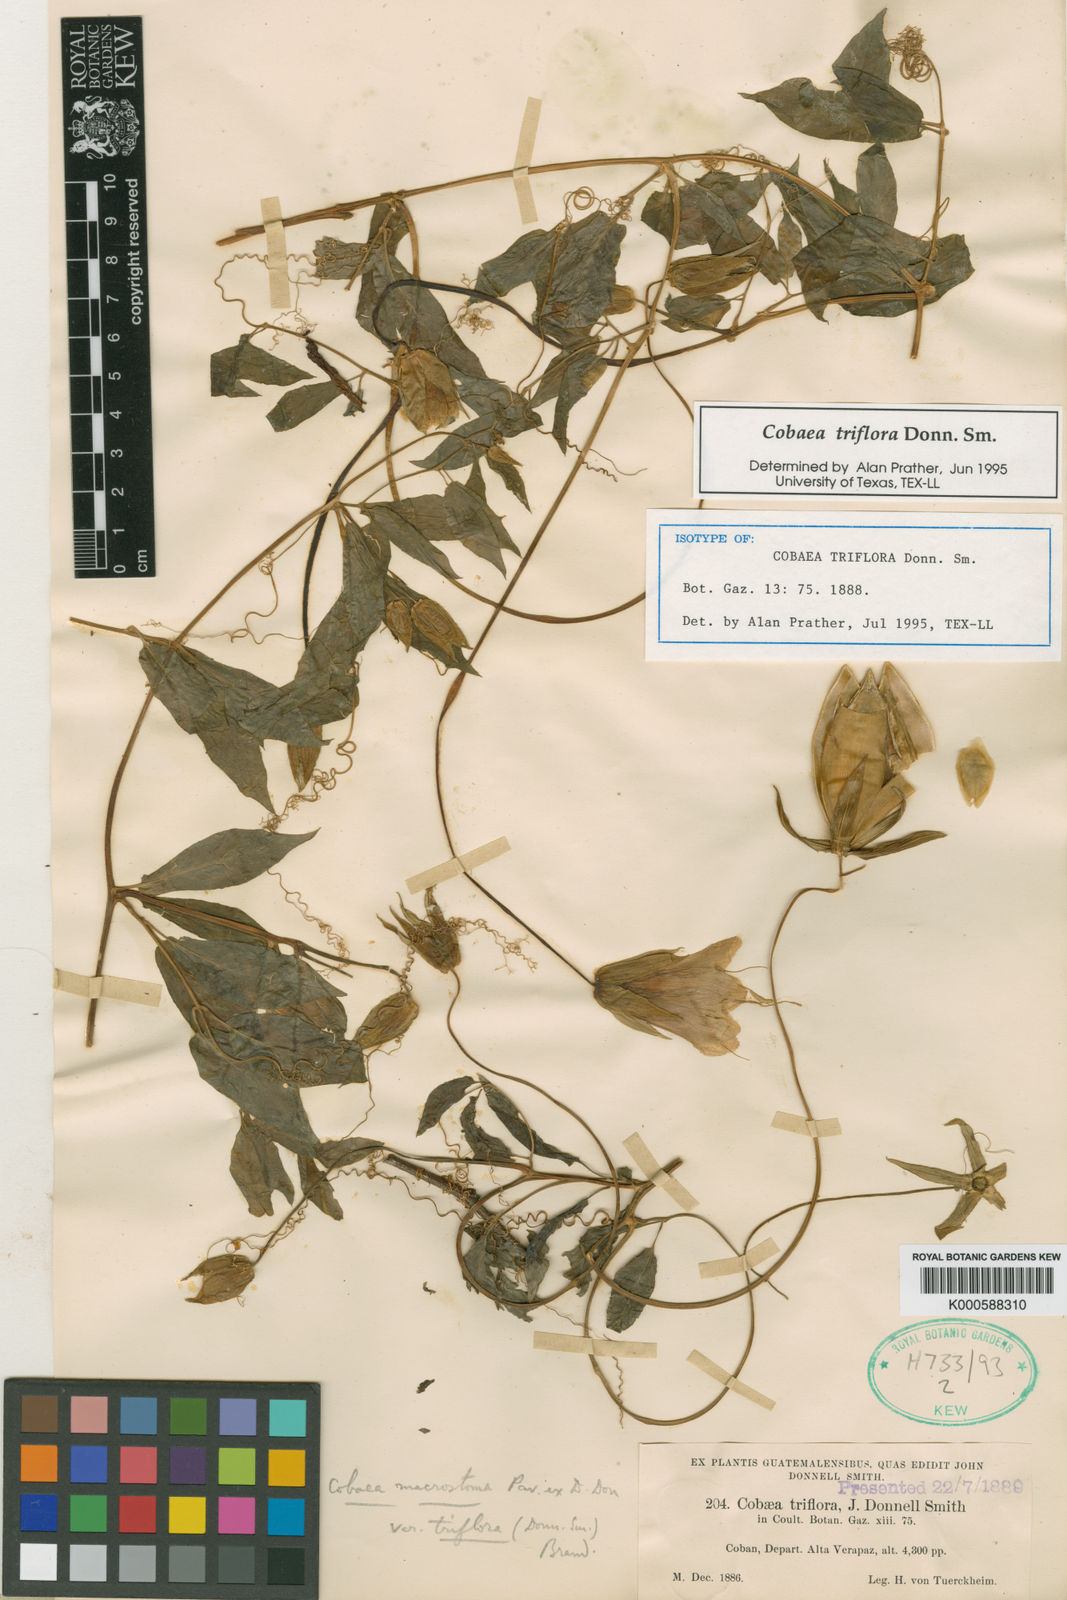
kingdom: Plantae
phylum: Tracheophyta
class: Magnoliopsida
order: Ericales
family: Polemoniaceae
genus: Cobaea
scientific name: Cobaea triflora
